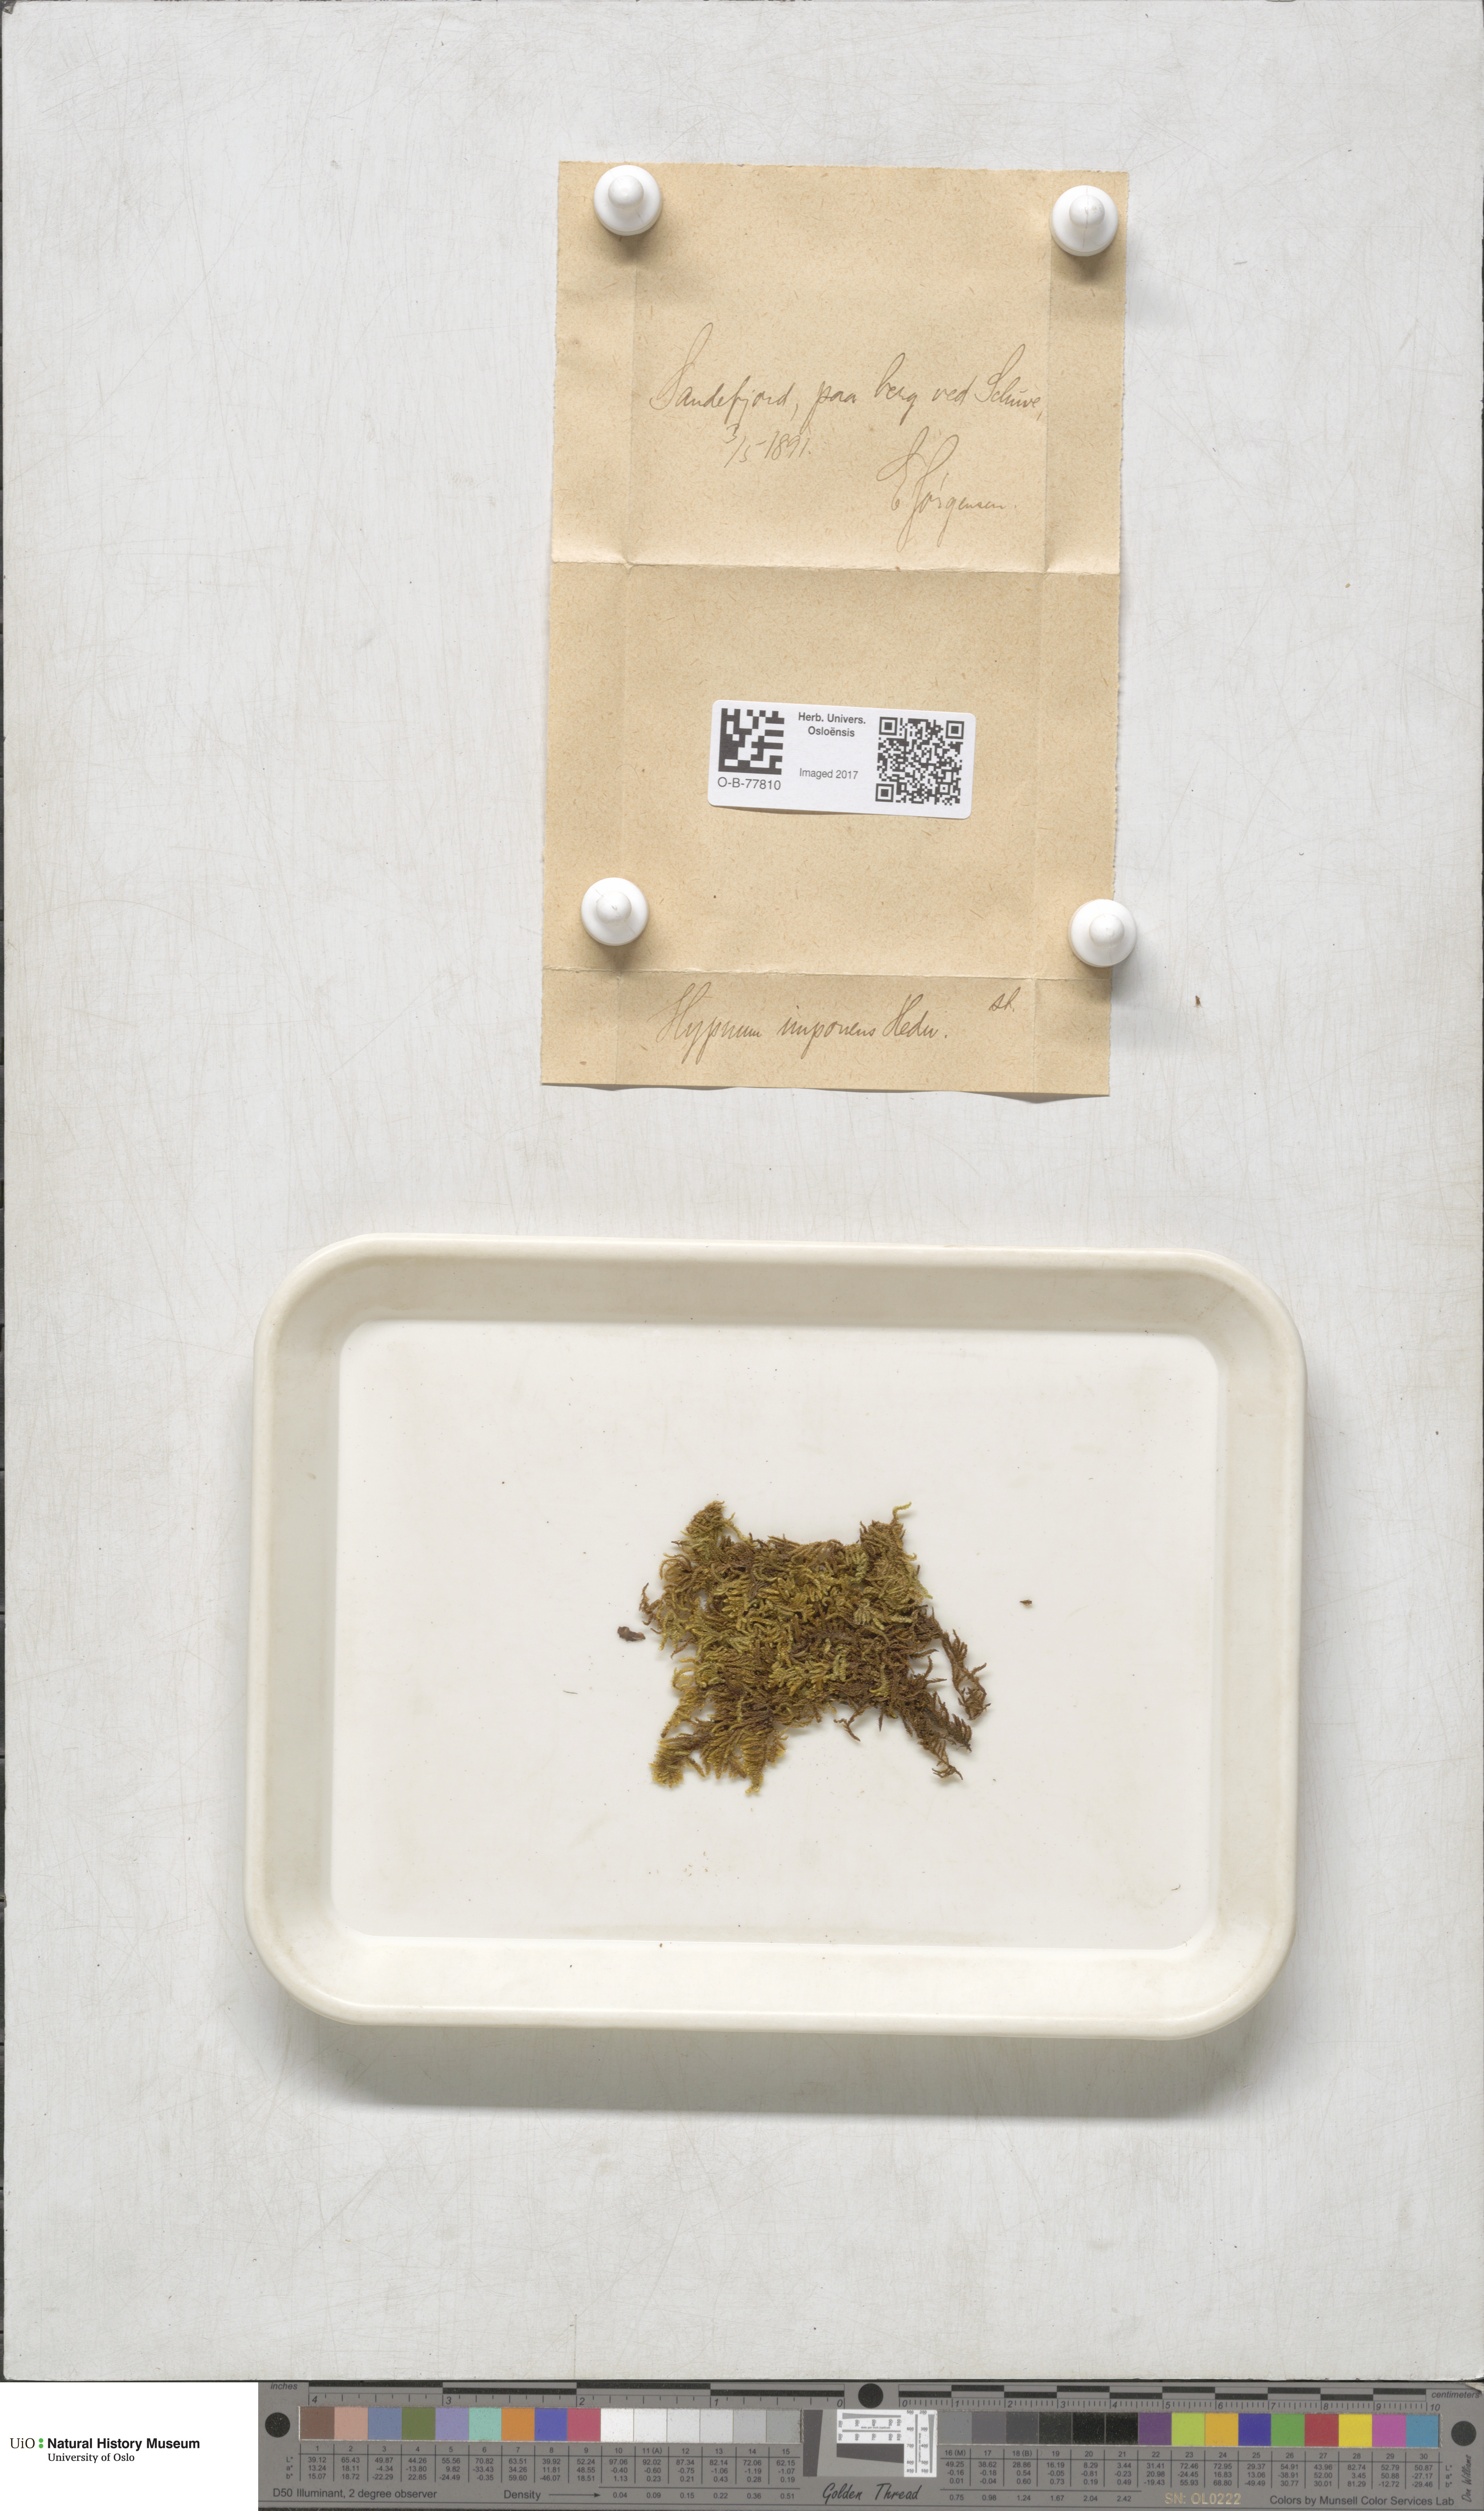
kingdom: Plantae
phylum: Bryophyta
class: Bryopsida
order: Hypnales
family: Callicladiaceae
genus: Callicladium
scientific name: Callicladium imponens
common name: Brocade moss
